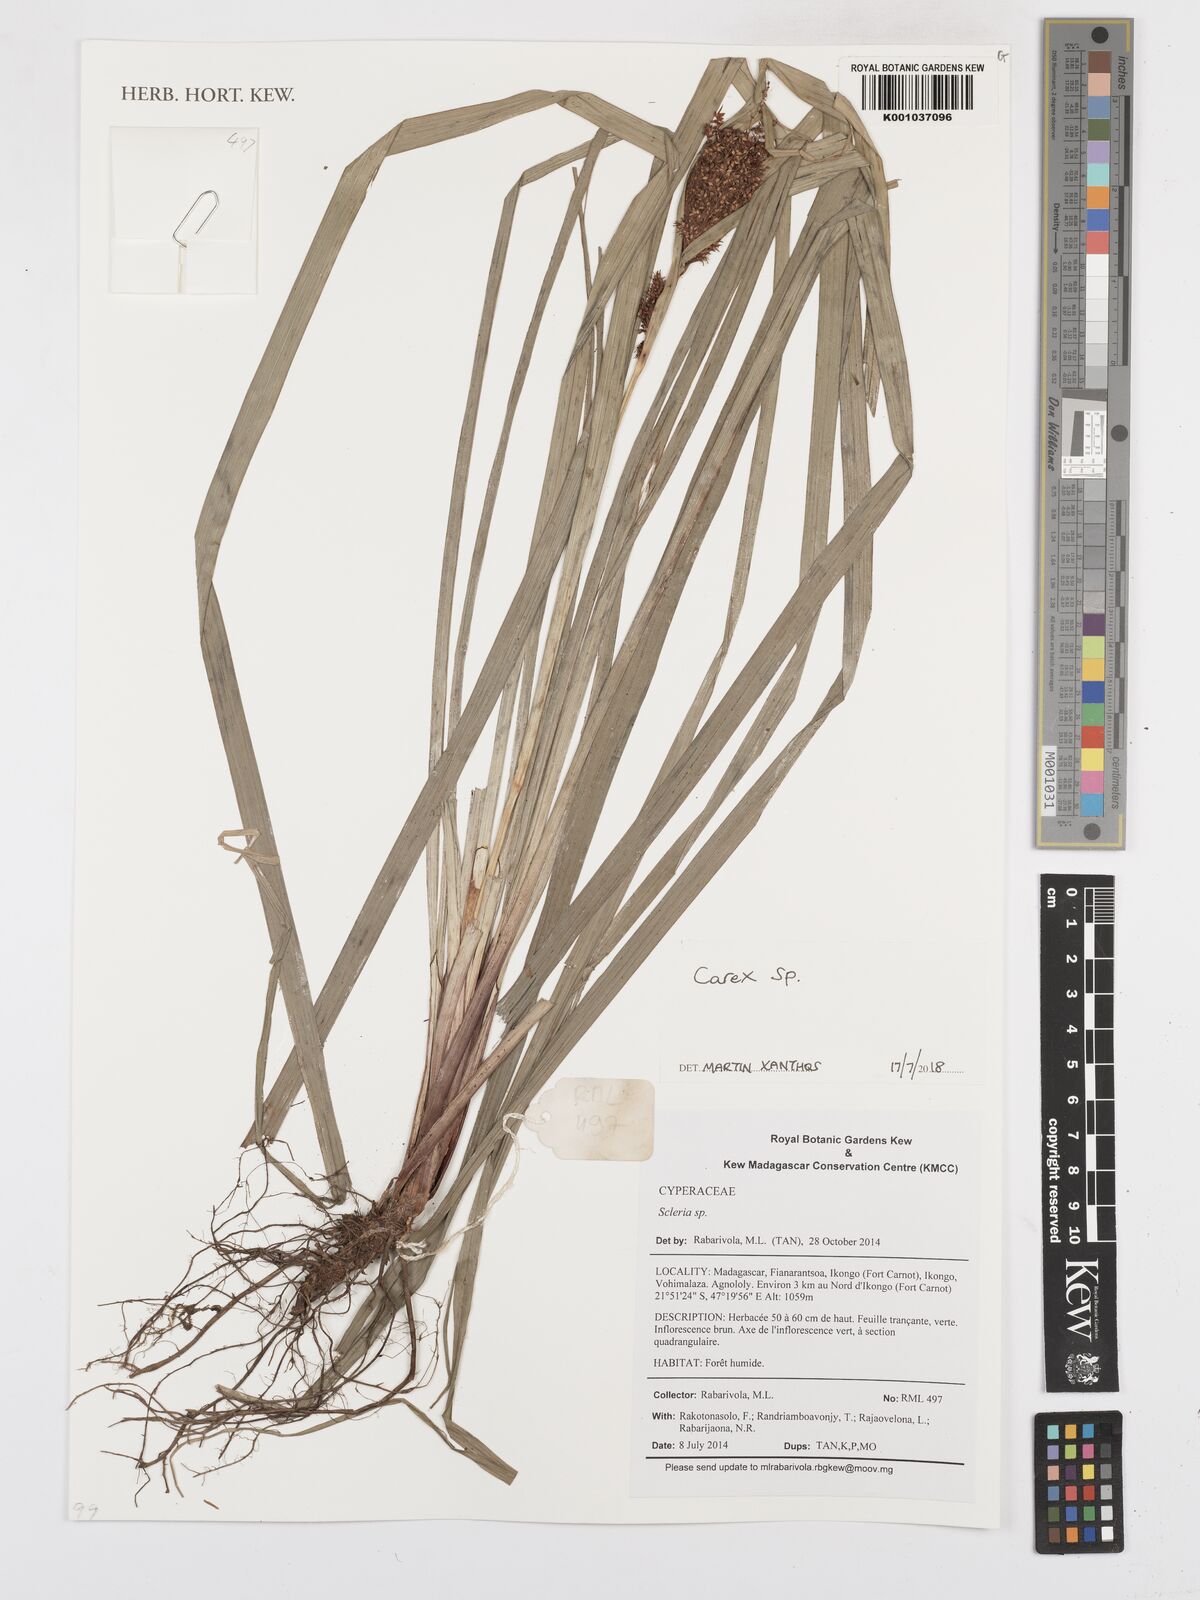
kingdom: Plantae
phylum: Tracheophyta
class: Liliopsida
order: Poales
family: Cyperaceae
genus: Carex
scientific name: Carex
